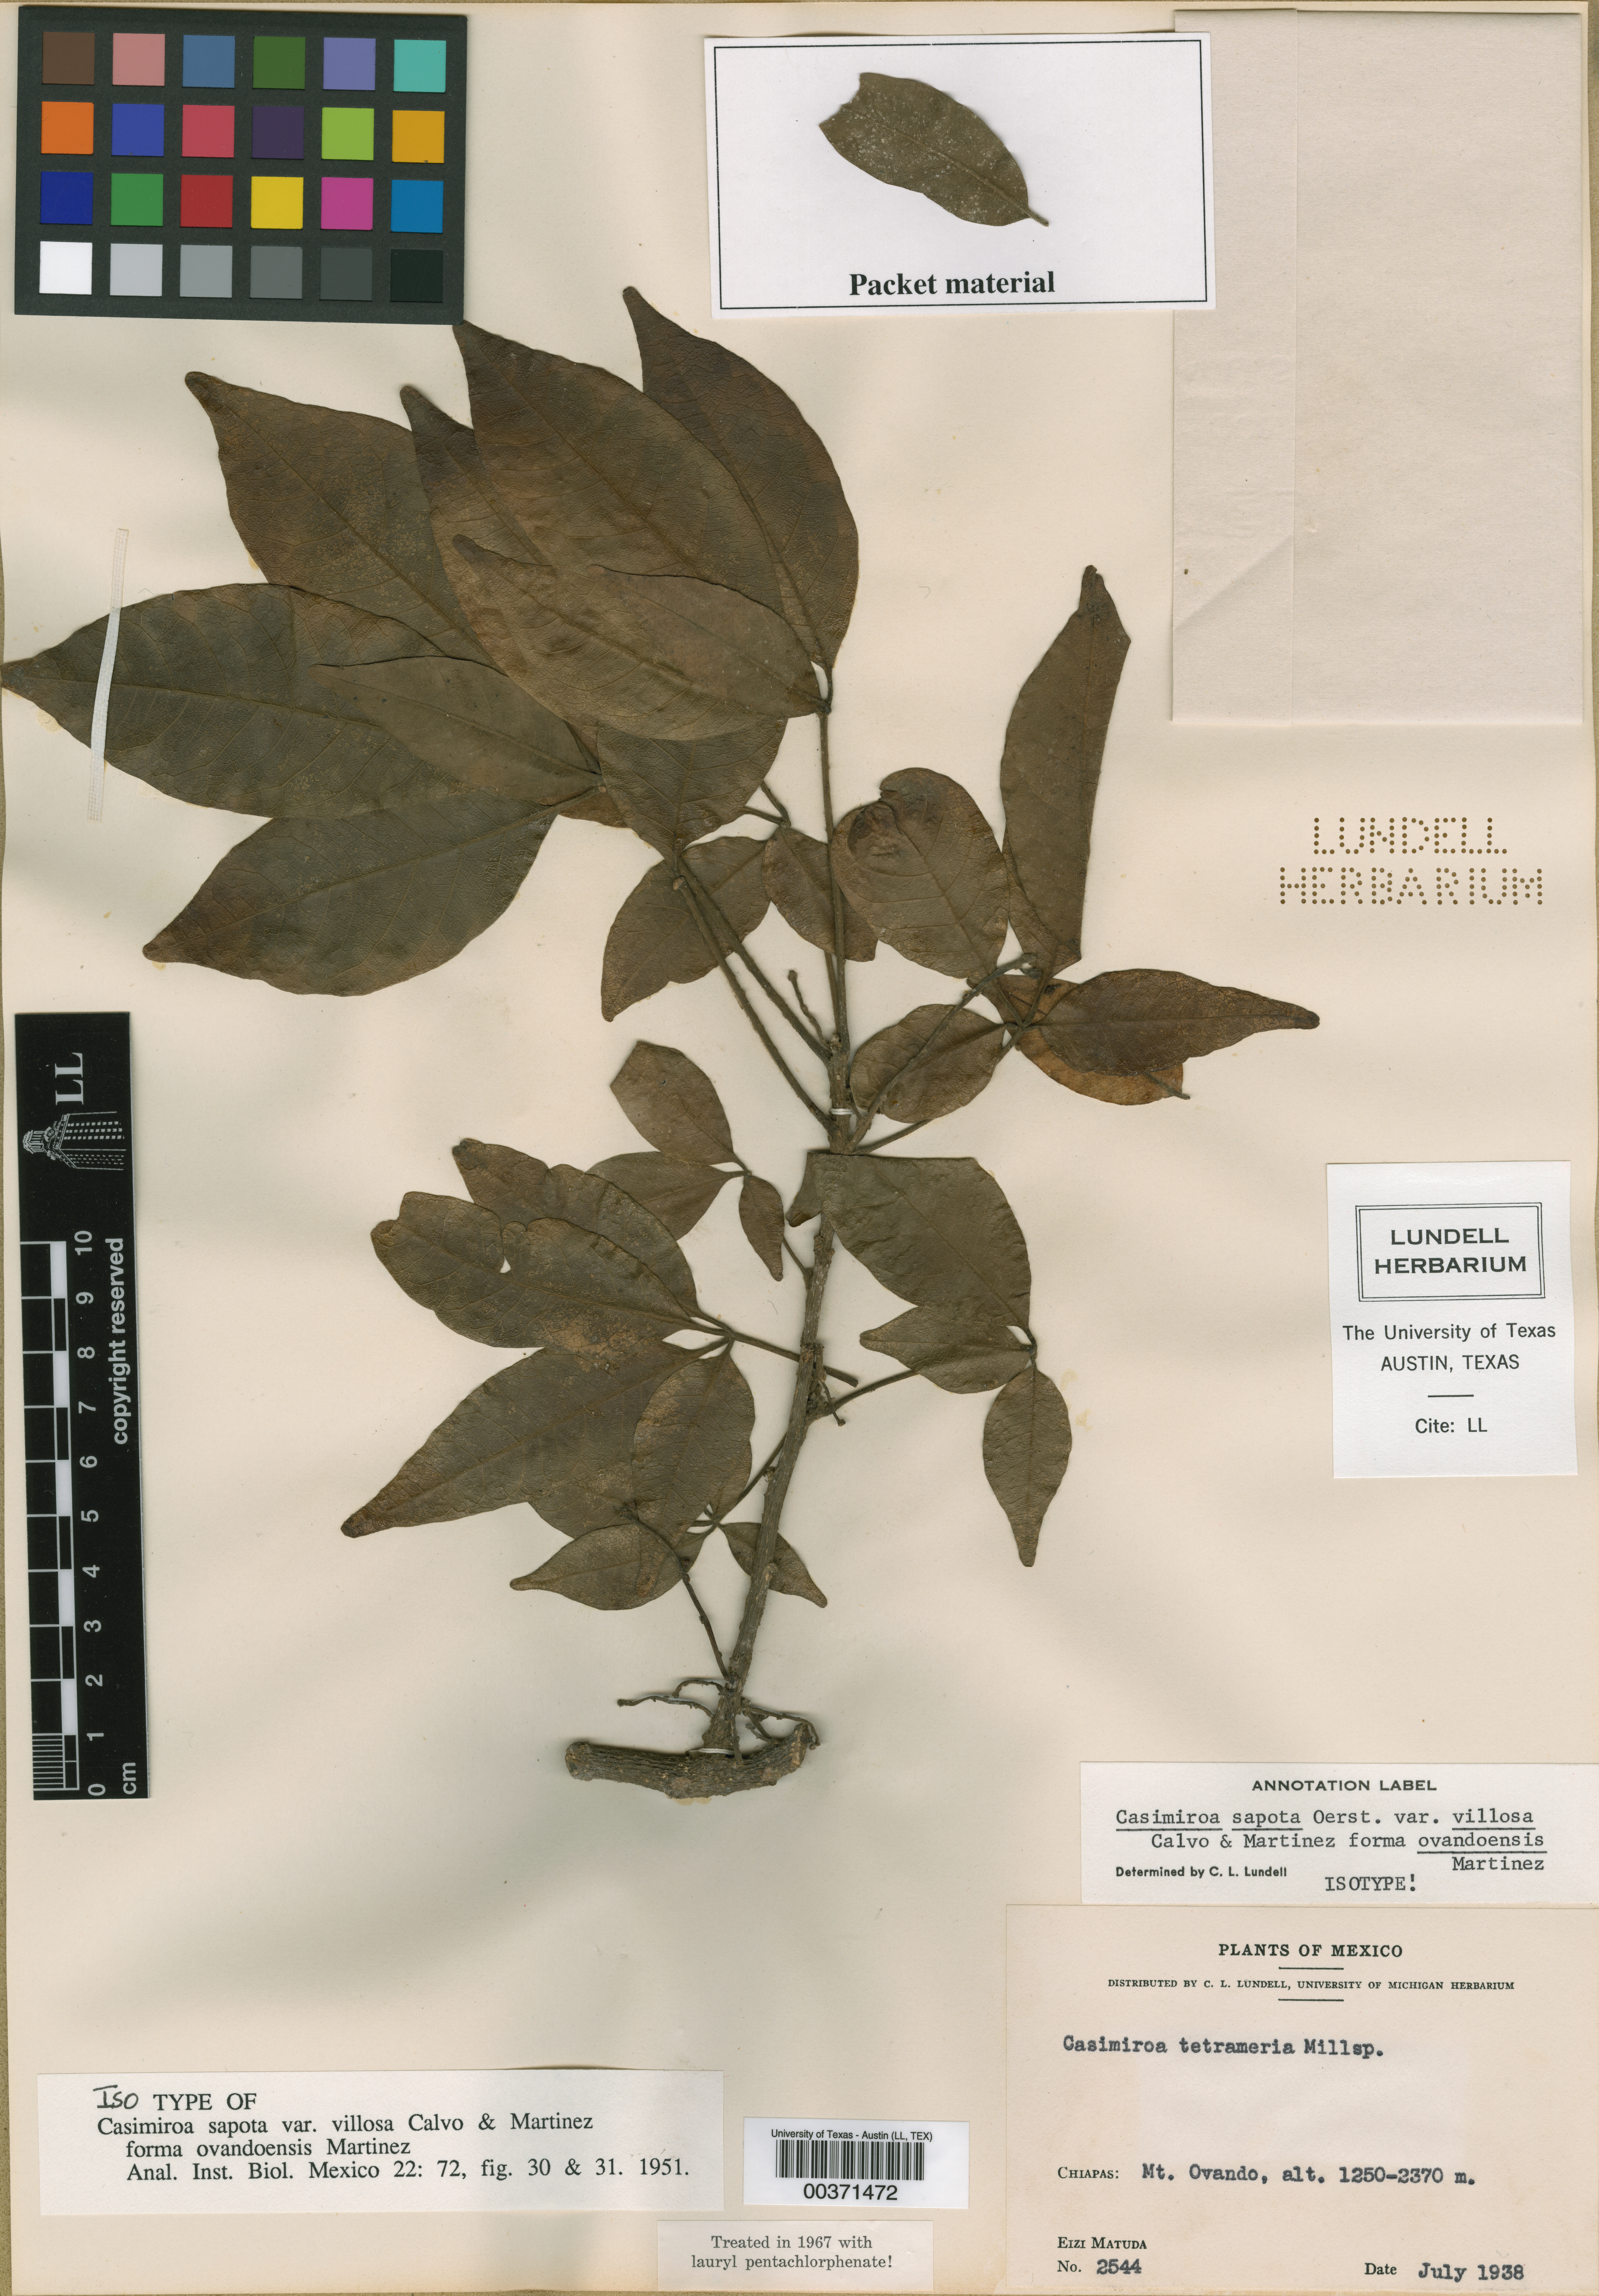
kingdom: Plantae
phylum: Tracheophyta
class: Magnoliopsida
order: Malpighiales
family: Hypericaceae
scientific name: Hypericaceae
